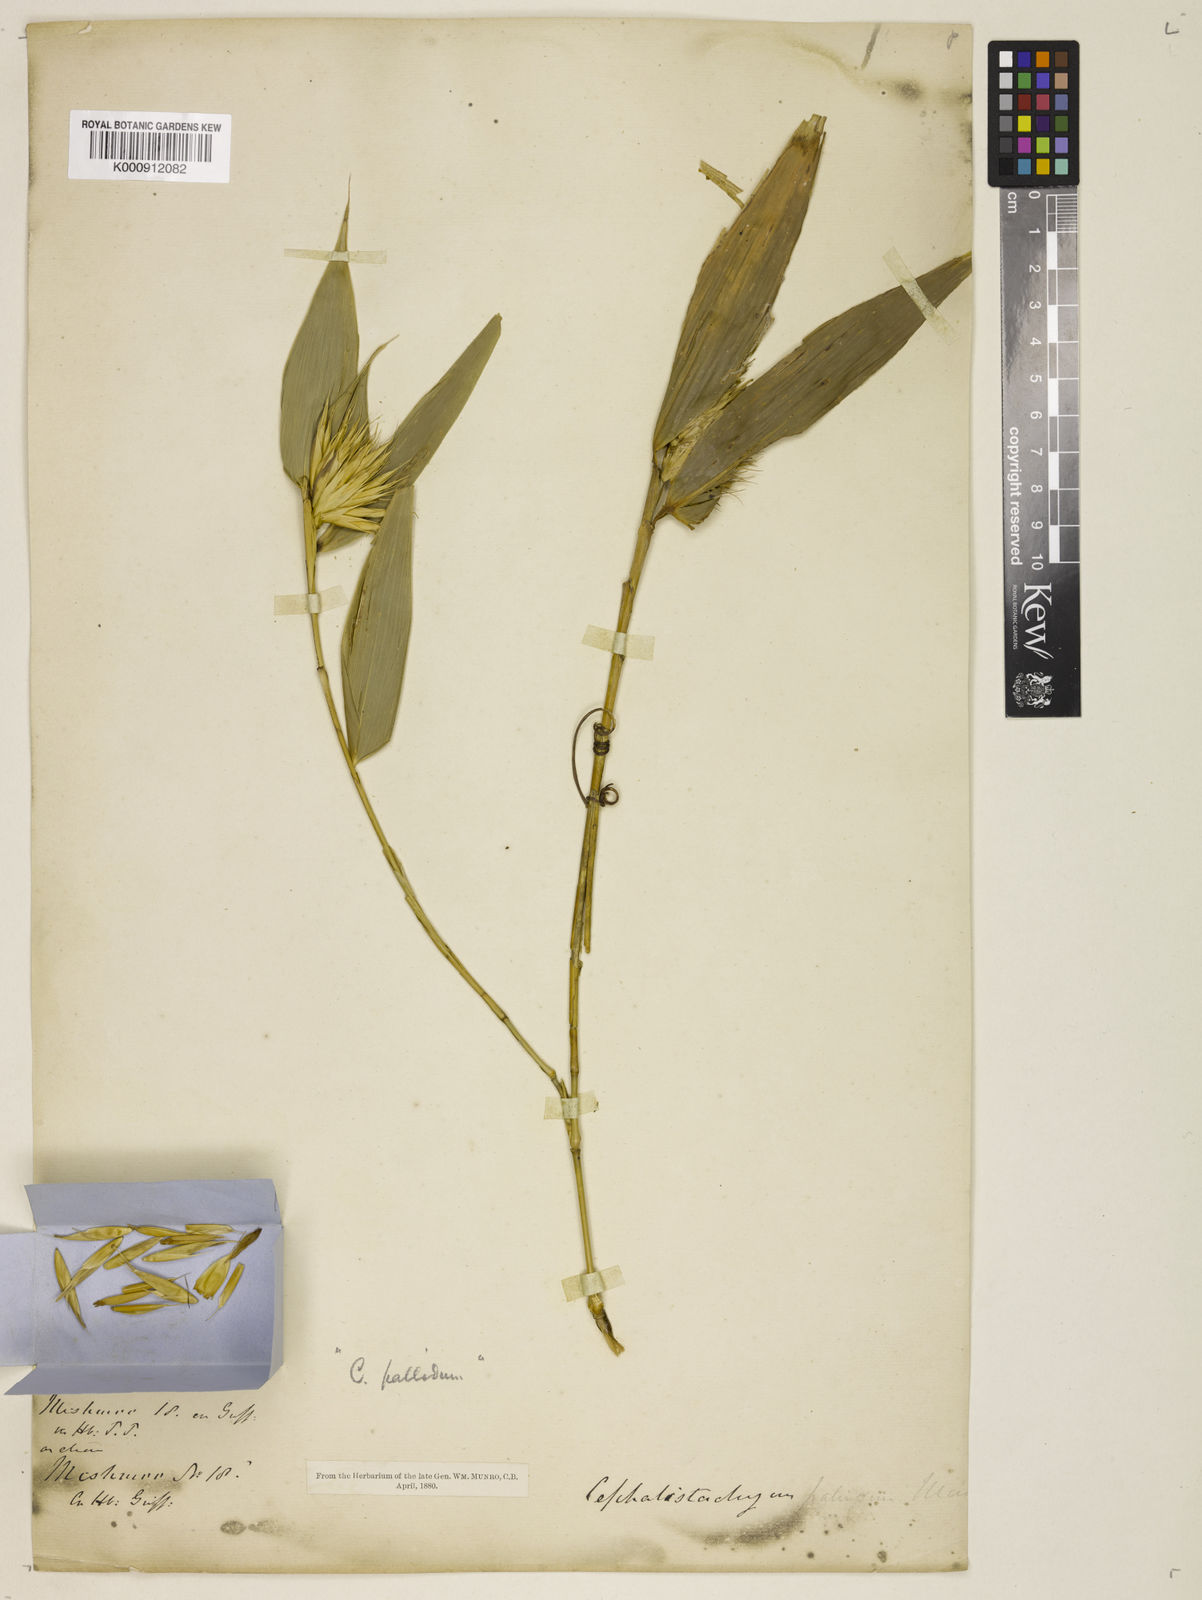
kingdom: Plantae
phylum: Tracheophyta
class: Liliopsida
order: Poales
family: Poaceae
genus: Cephalostachyum
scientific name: Cephalostachyum pallidum
